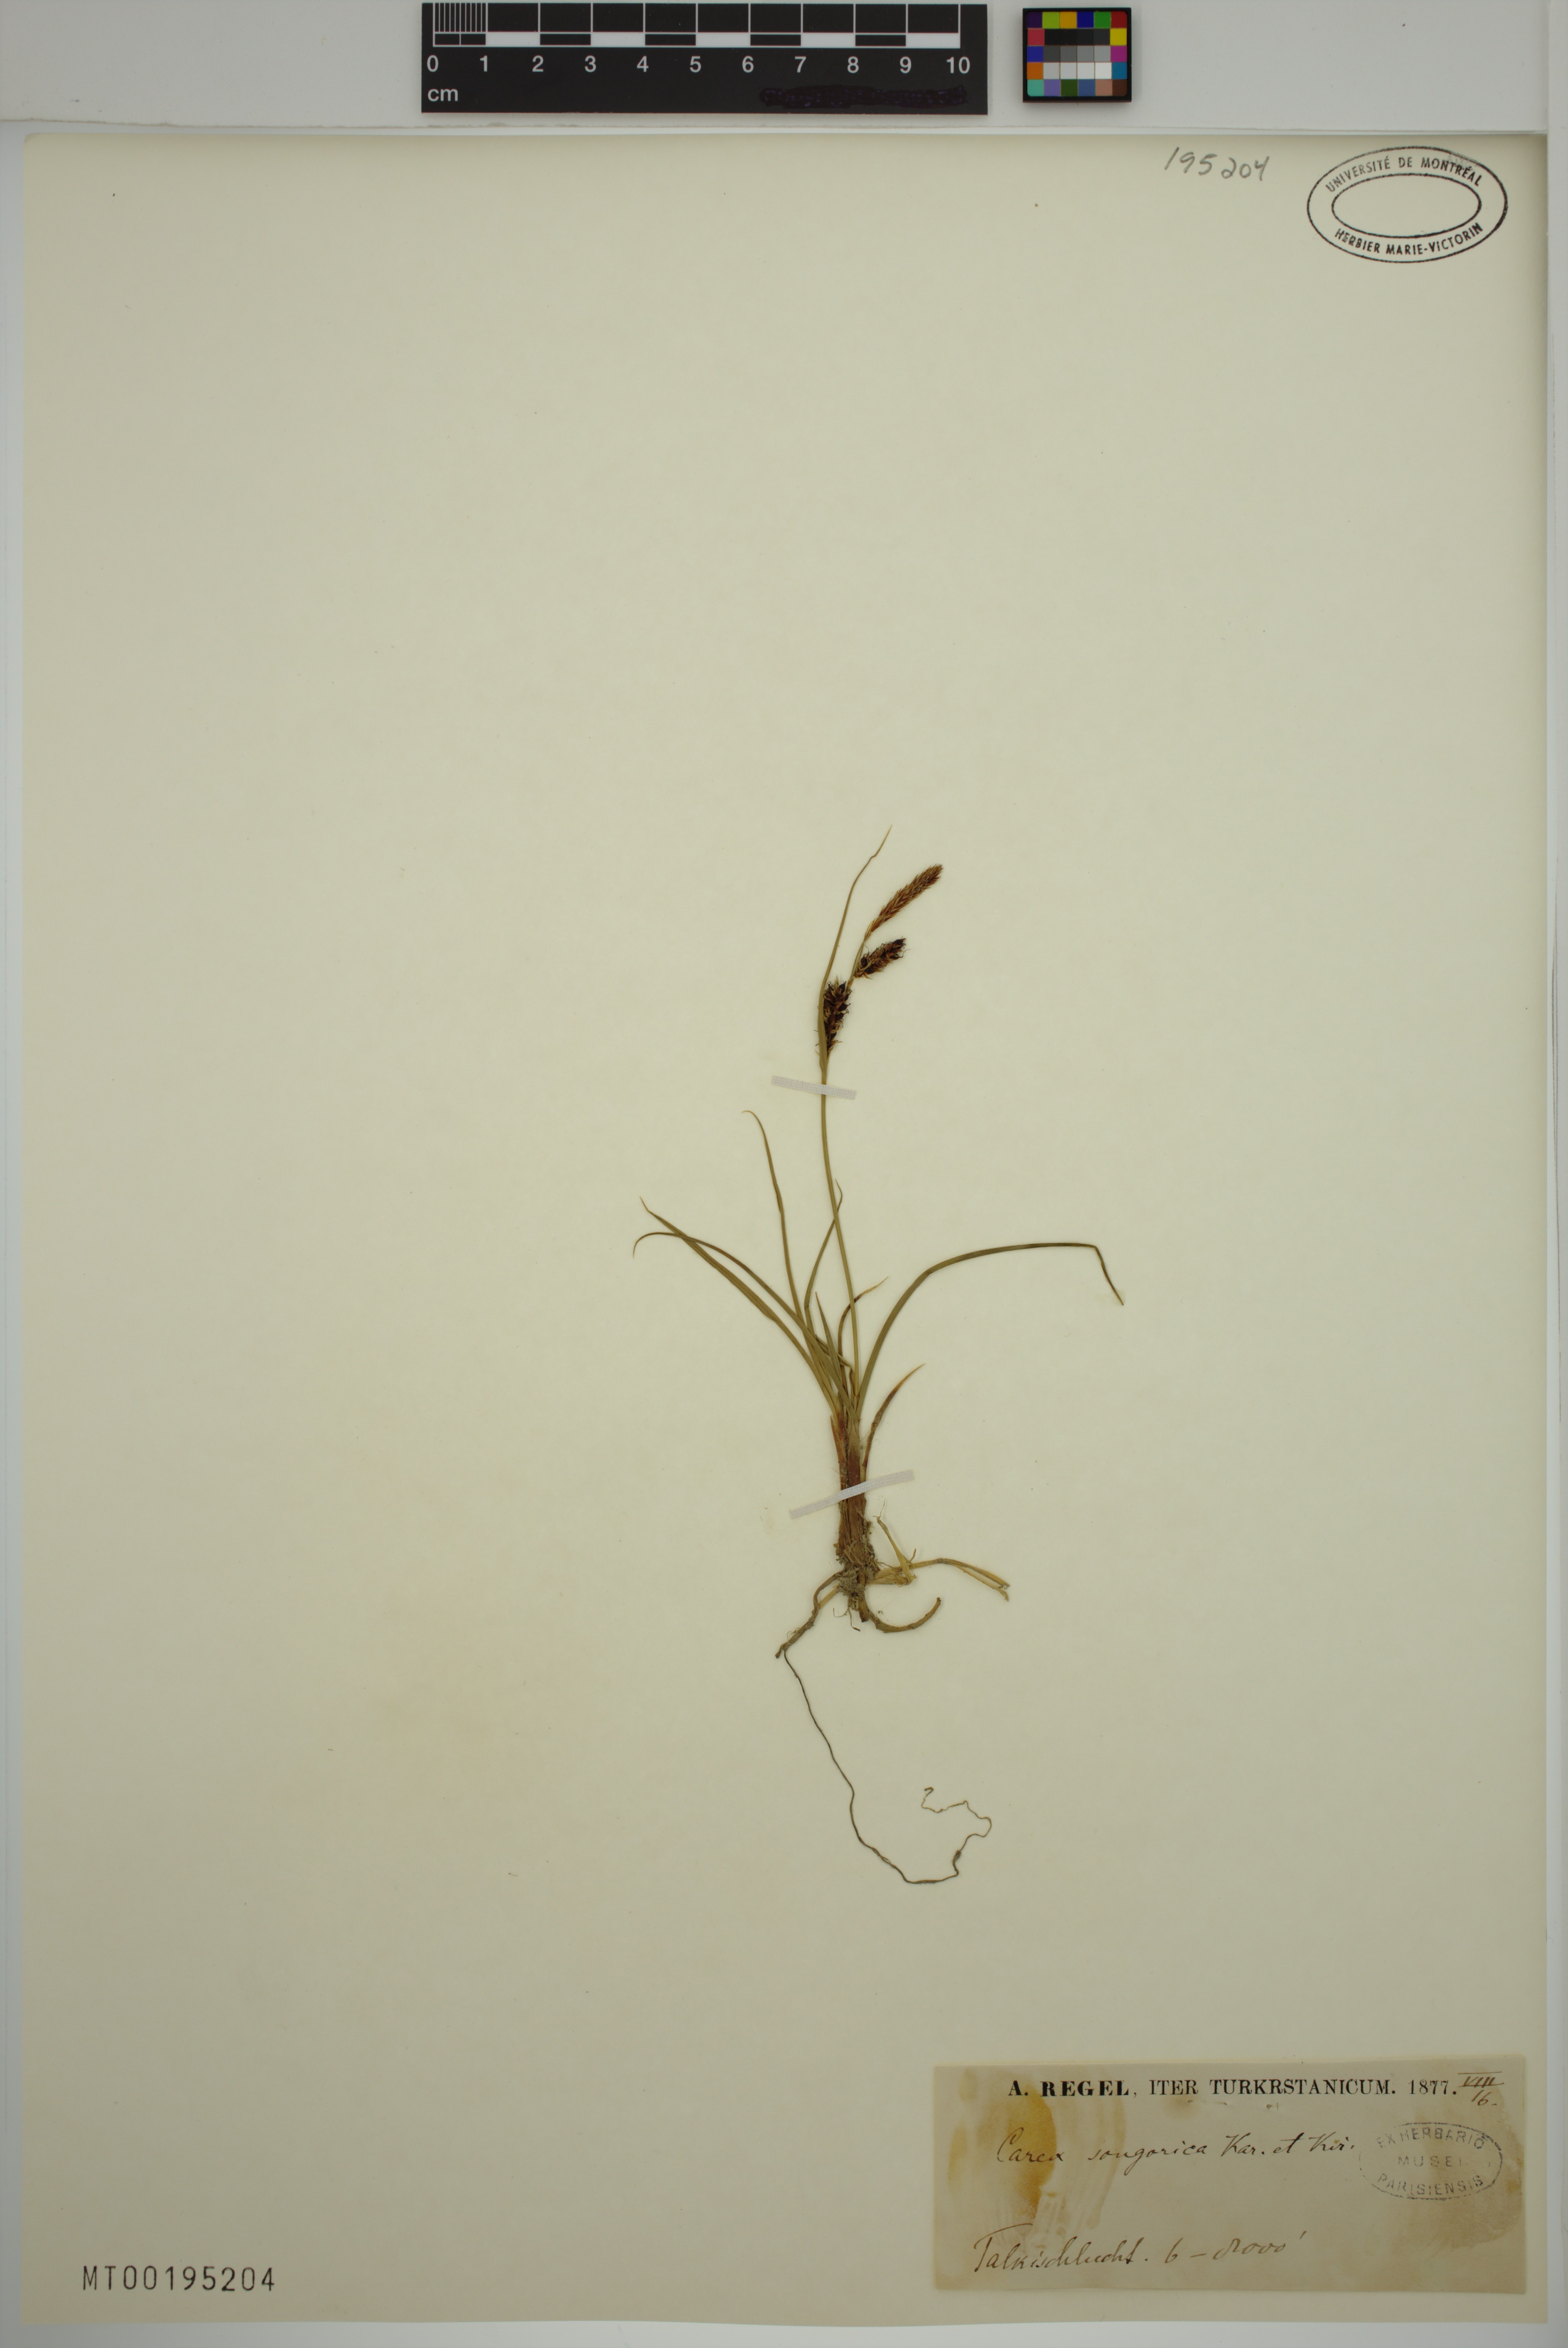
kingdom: Plantae
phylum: Tracheophyta
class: Liliopsida
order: Poales
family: Cyperaceae
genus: Carex
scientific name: Carex songorica
